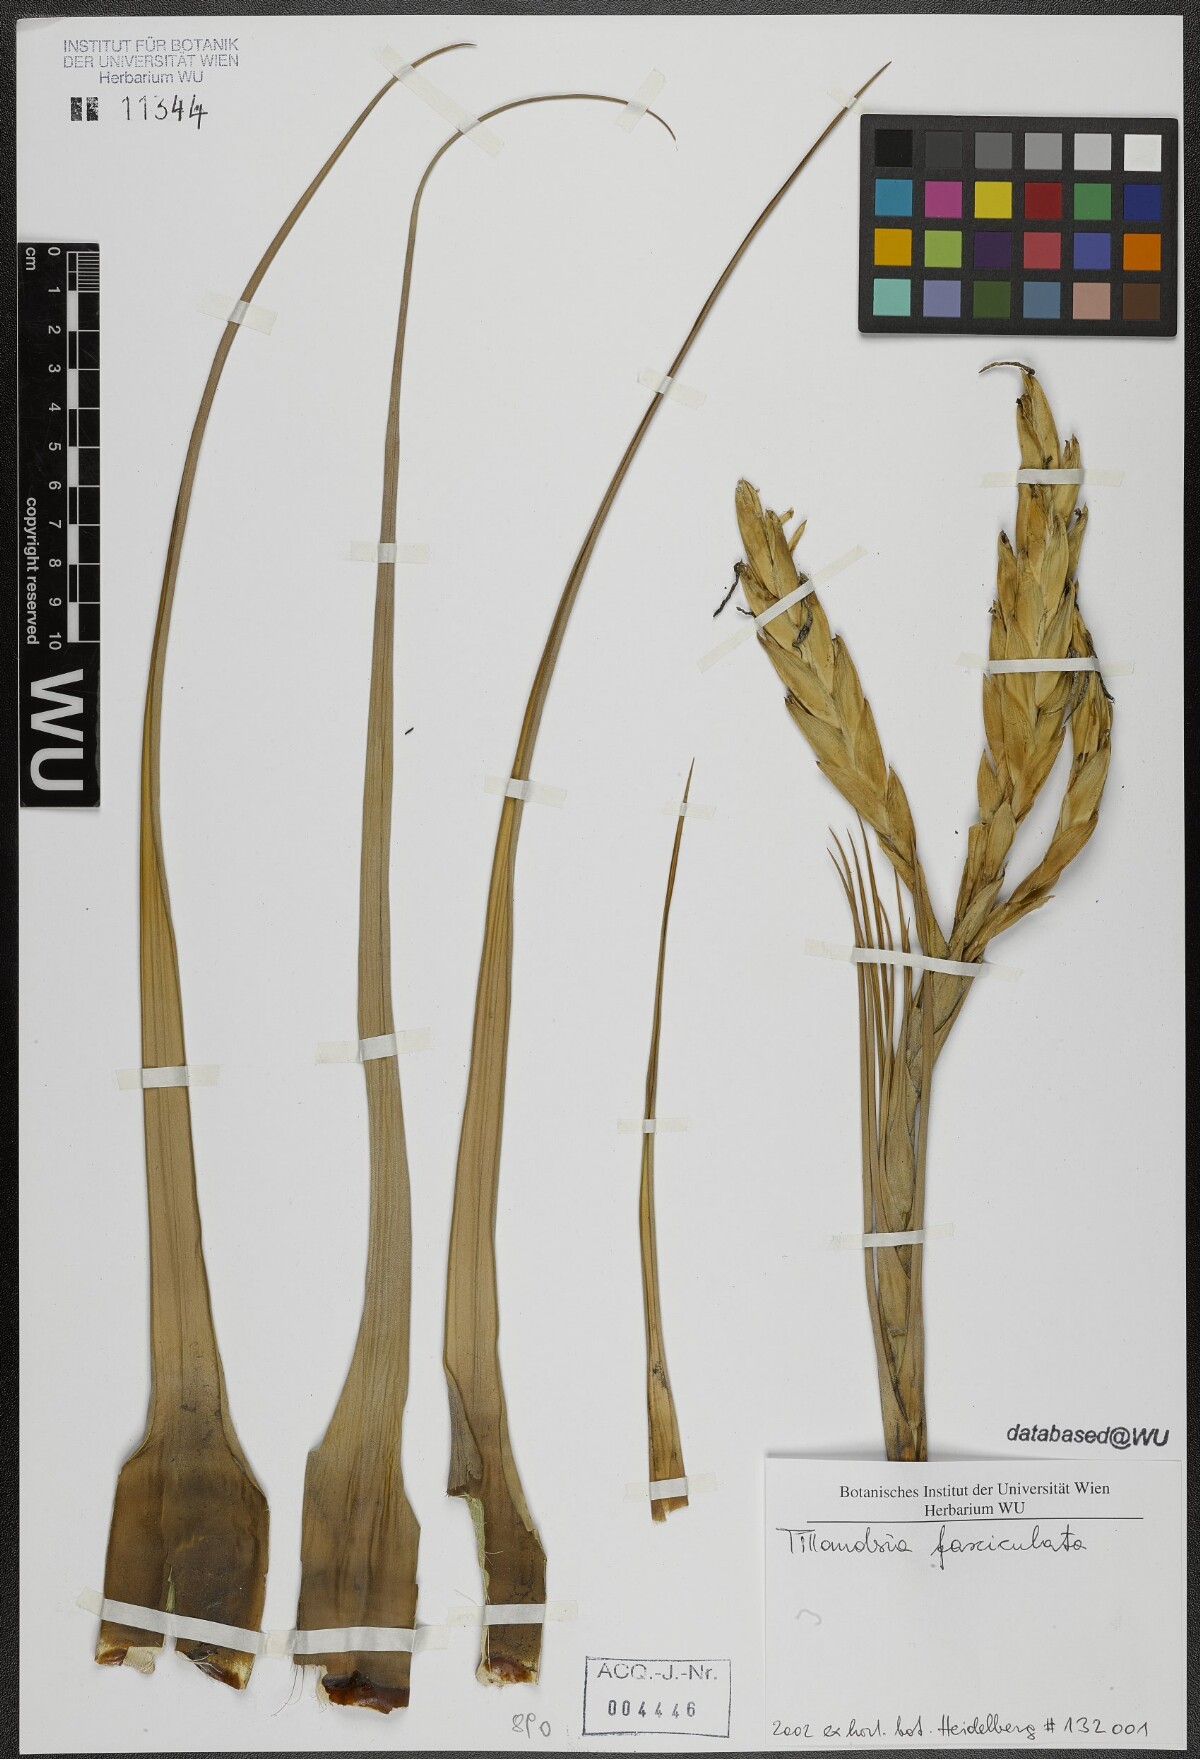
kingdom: Plantae
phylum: Tracheophyta
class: Liliopsida
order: Poales
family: Bromeliaceae
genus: Tillandsia
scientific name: Tillandsia fasciculata
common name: Giant airplant
